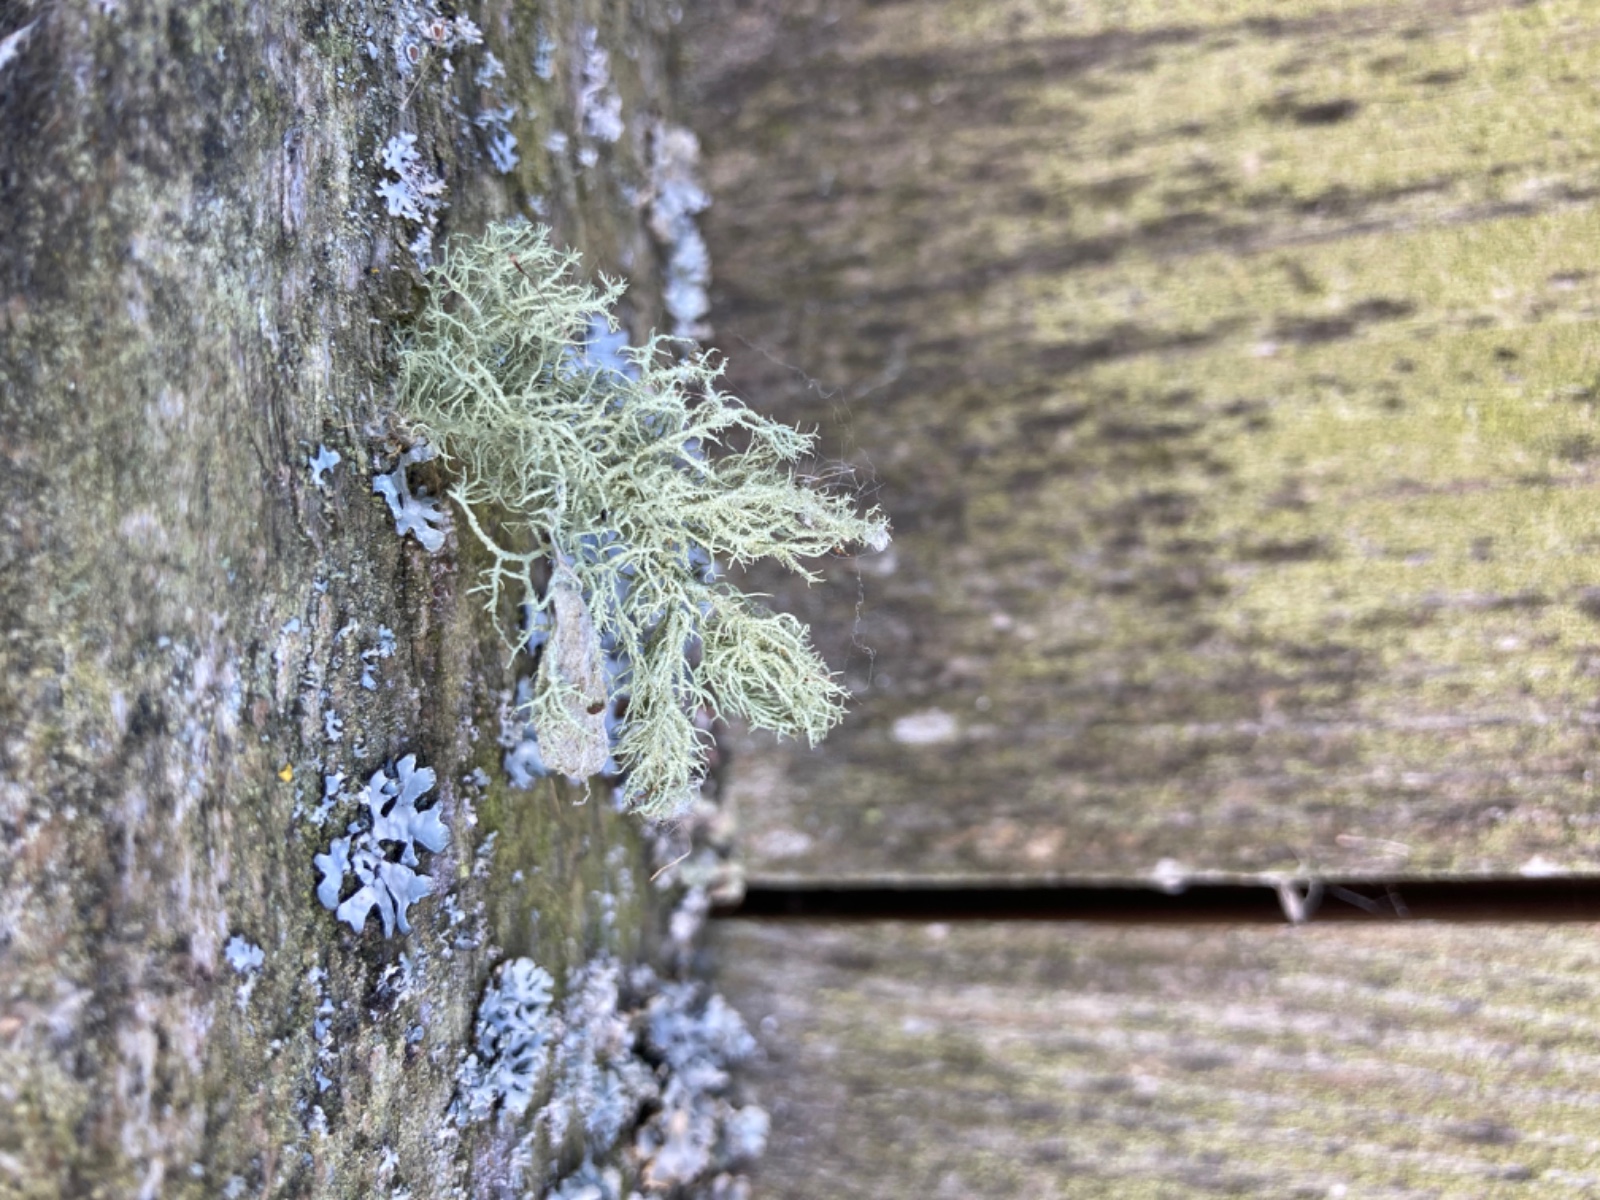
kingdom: Fungi
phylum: Ascomycota
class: Lecanoromycetes
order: Lecanorales
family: Parmeliaceae
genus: Usnea
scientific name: Usnea hirta
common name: liden skæglav
